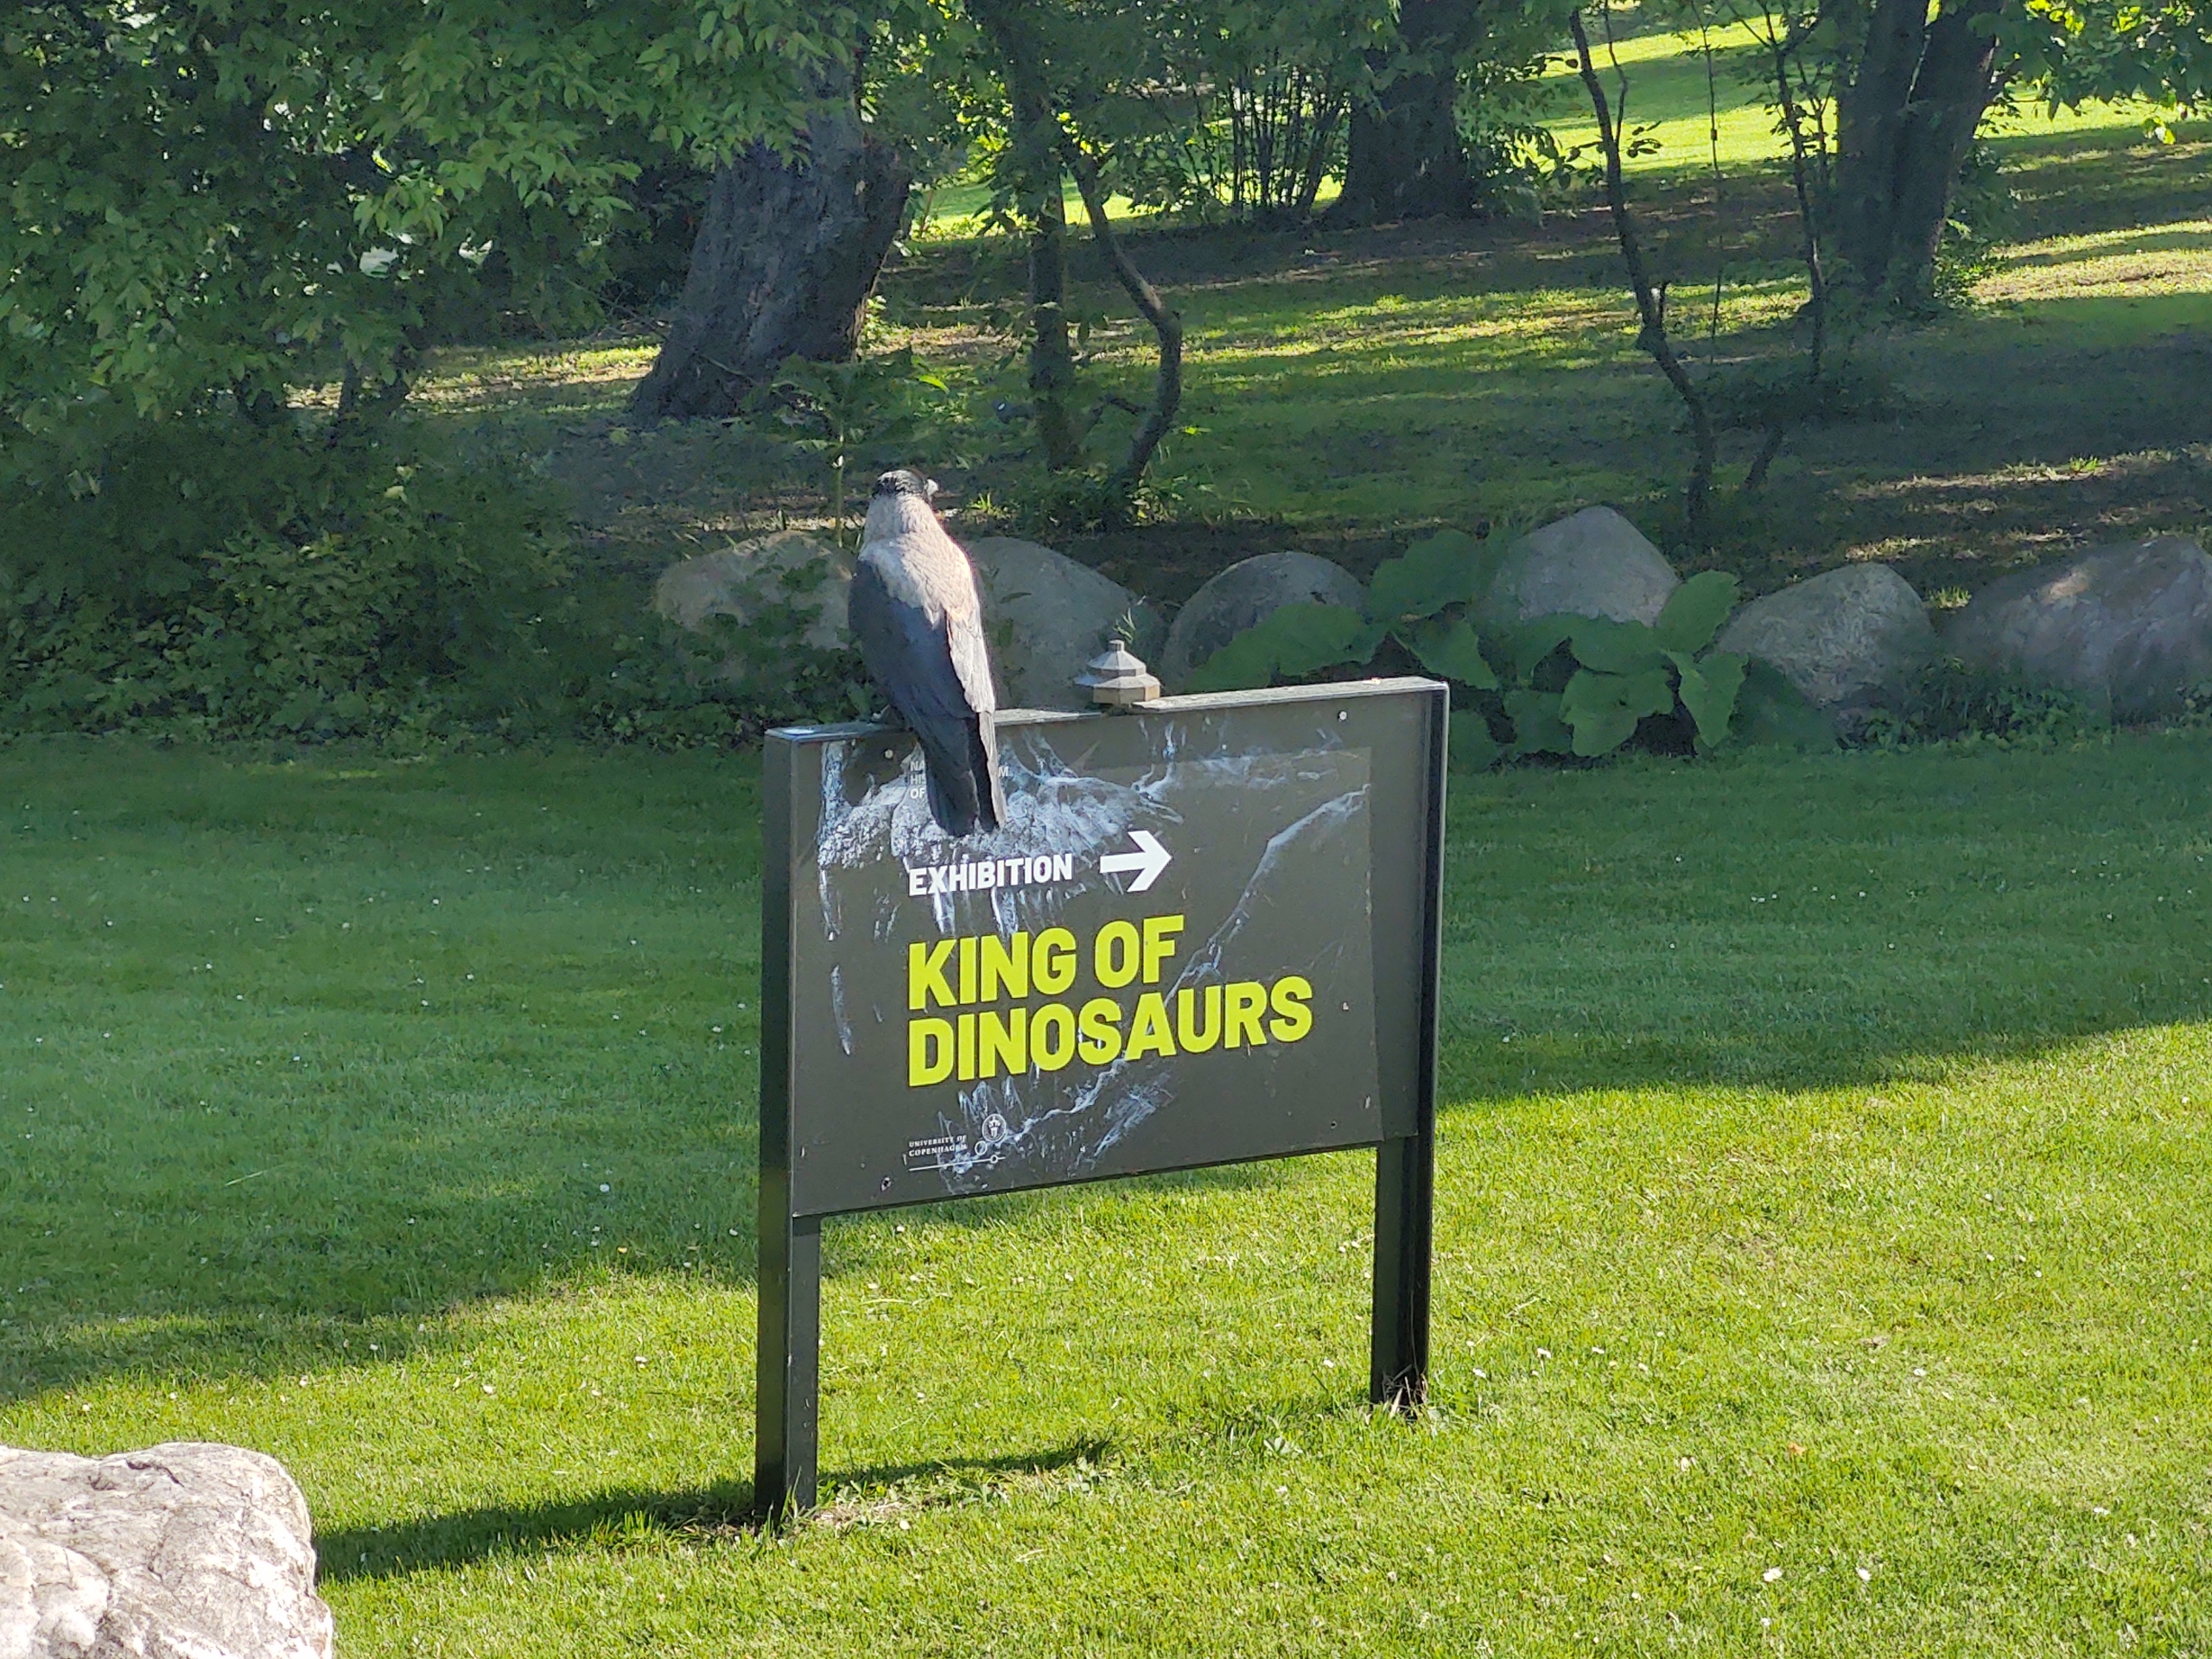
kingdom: Animalia
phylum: Chordata
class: Aves
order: Passeriformes
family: Corvidae
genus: Corvus
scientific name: Corvus cornix
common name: Gråkrage
